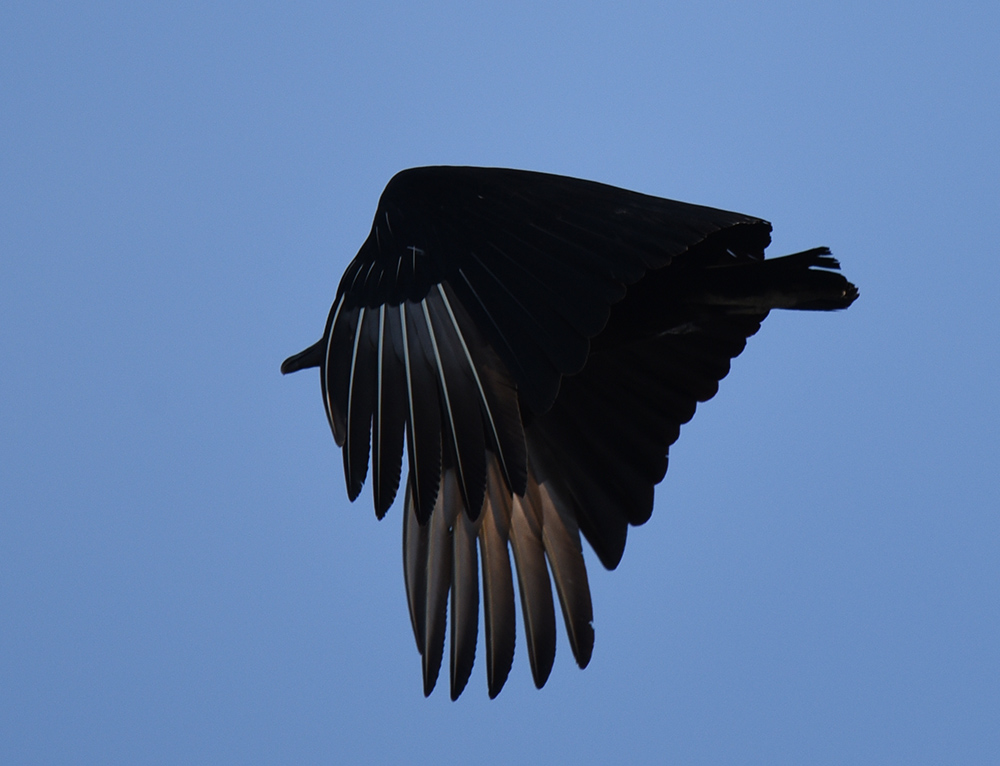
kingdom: Animalia
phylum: Chordata
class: Aves
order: Accipitriformes
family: Cathartidae
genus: Coragyps
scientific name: Coragyps atratus
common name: Black vulture
